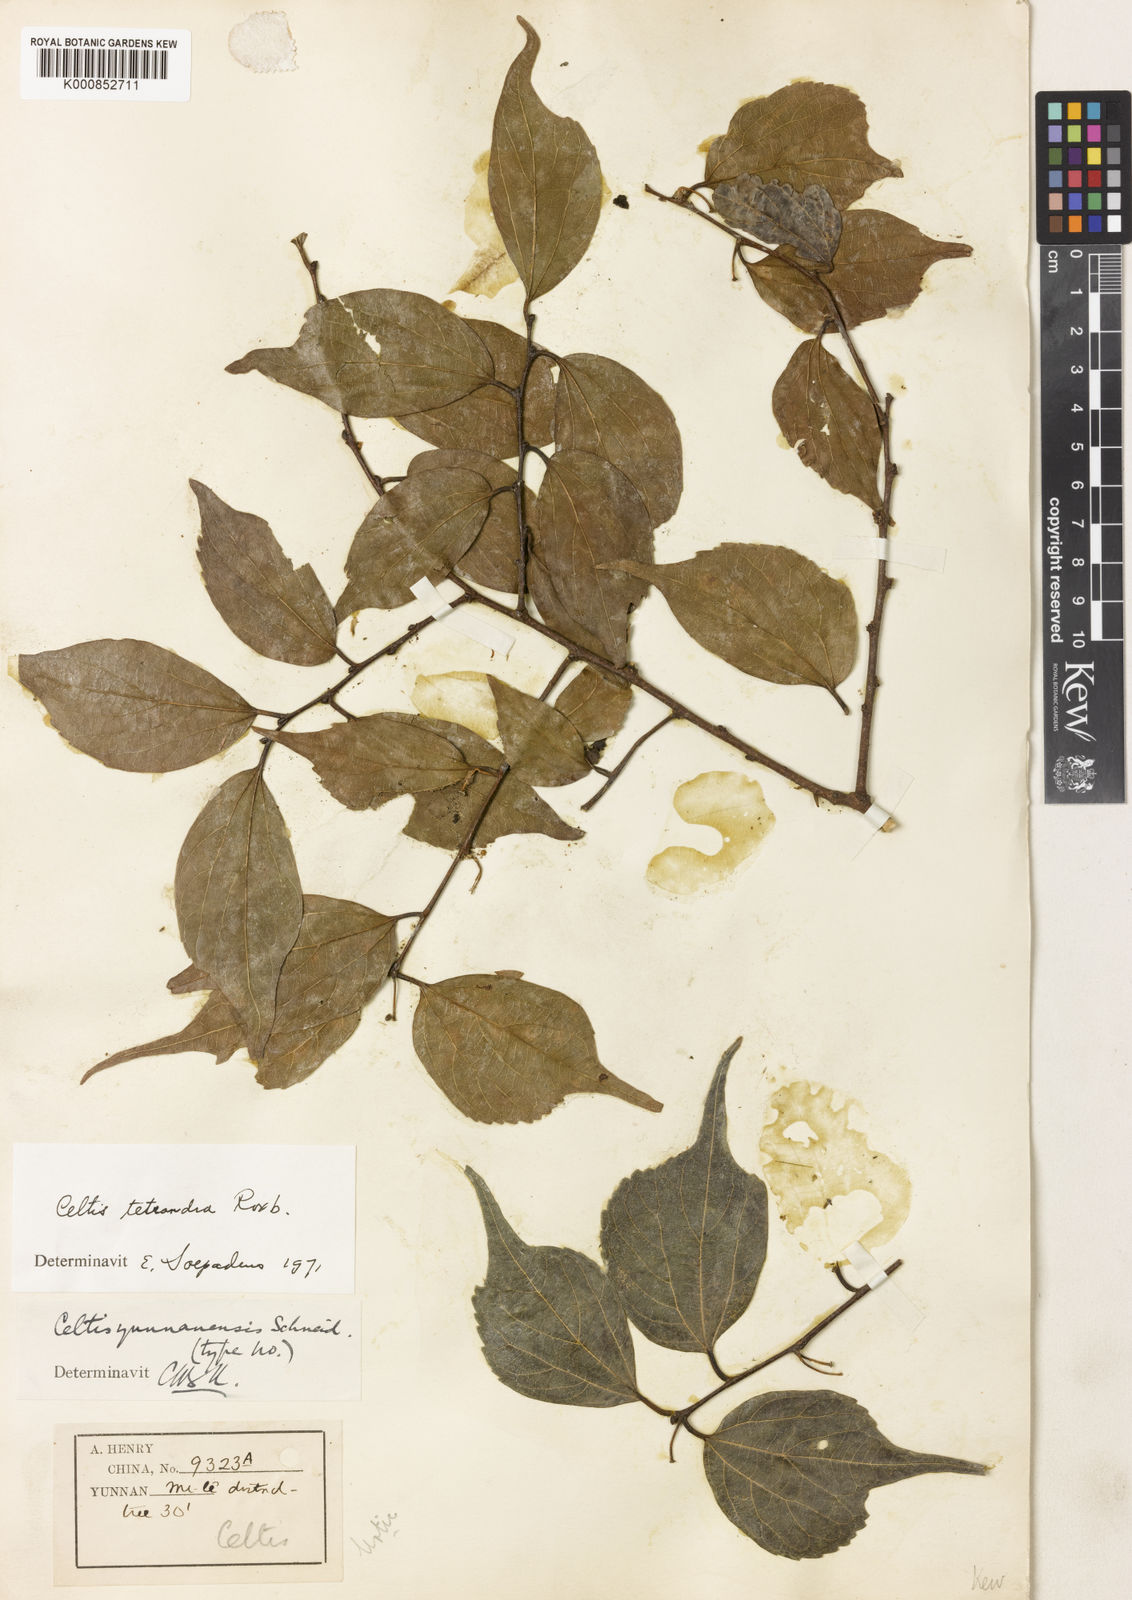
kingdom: Plantae
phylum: Tracheophyta
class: Magnoliopsida
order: Rosales
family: Cannabaceae
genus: Celtis
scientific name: Celtis tetrandra
